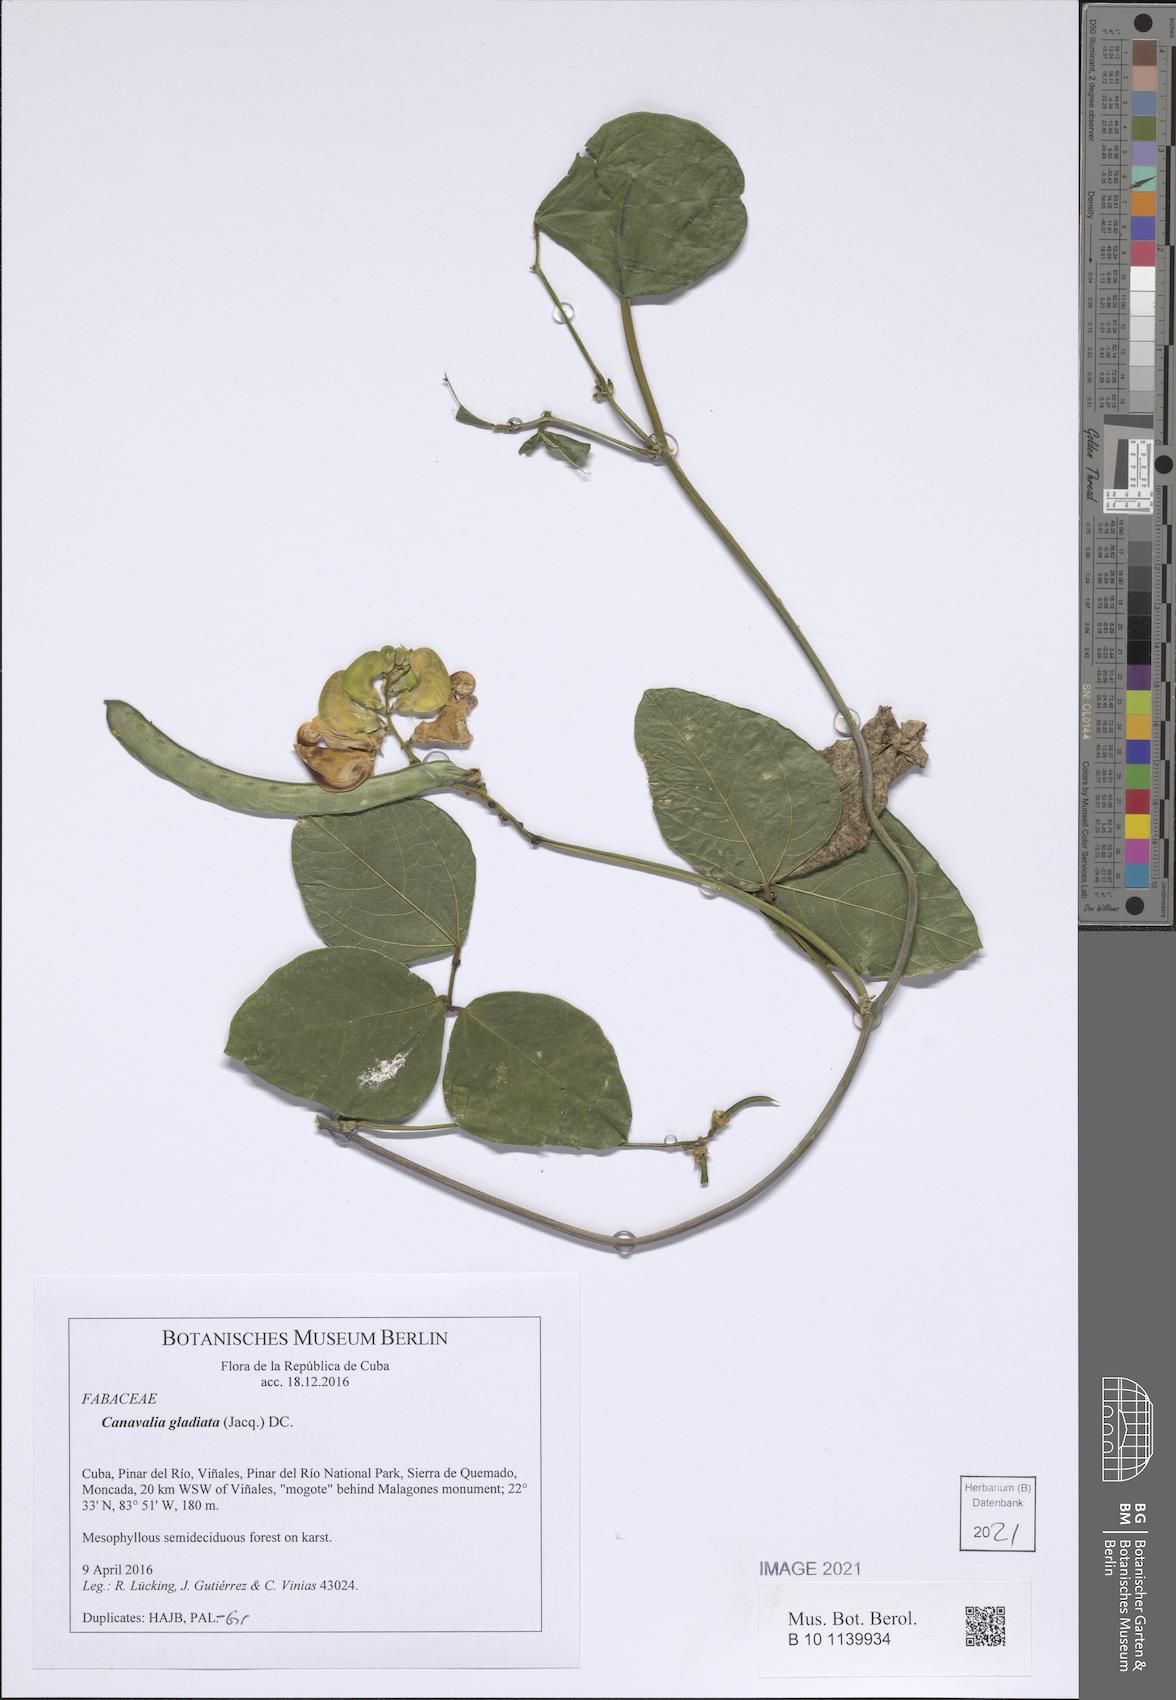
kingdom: Plantae
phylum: Tracheophyta
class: Magnoliopsida
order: Fabales
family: Fabaceae
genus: Canavalia
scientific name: Canavalia gladiata
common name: Scimitar-bean
